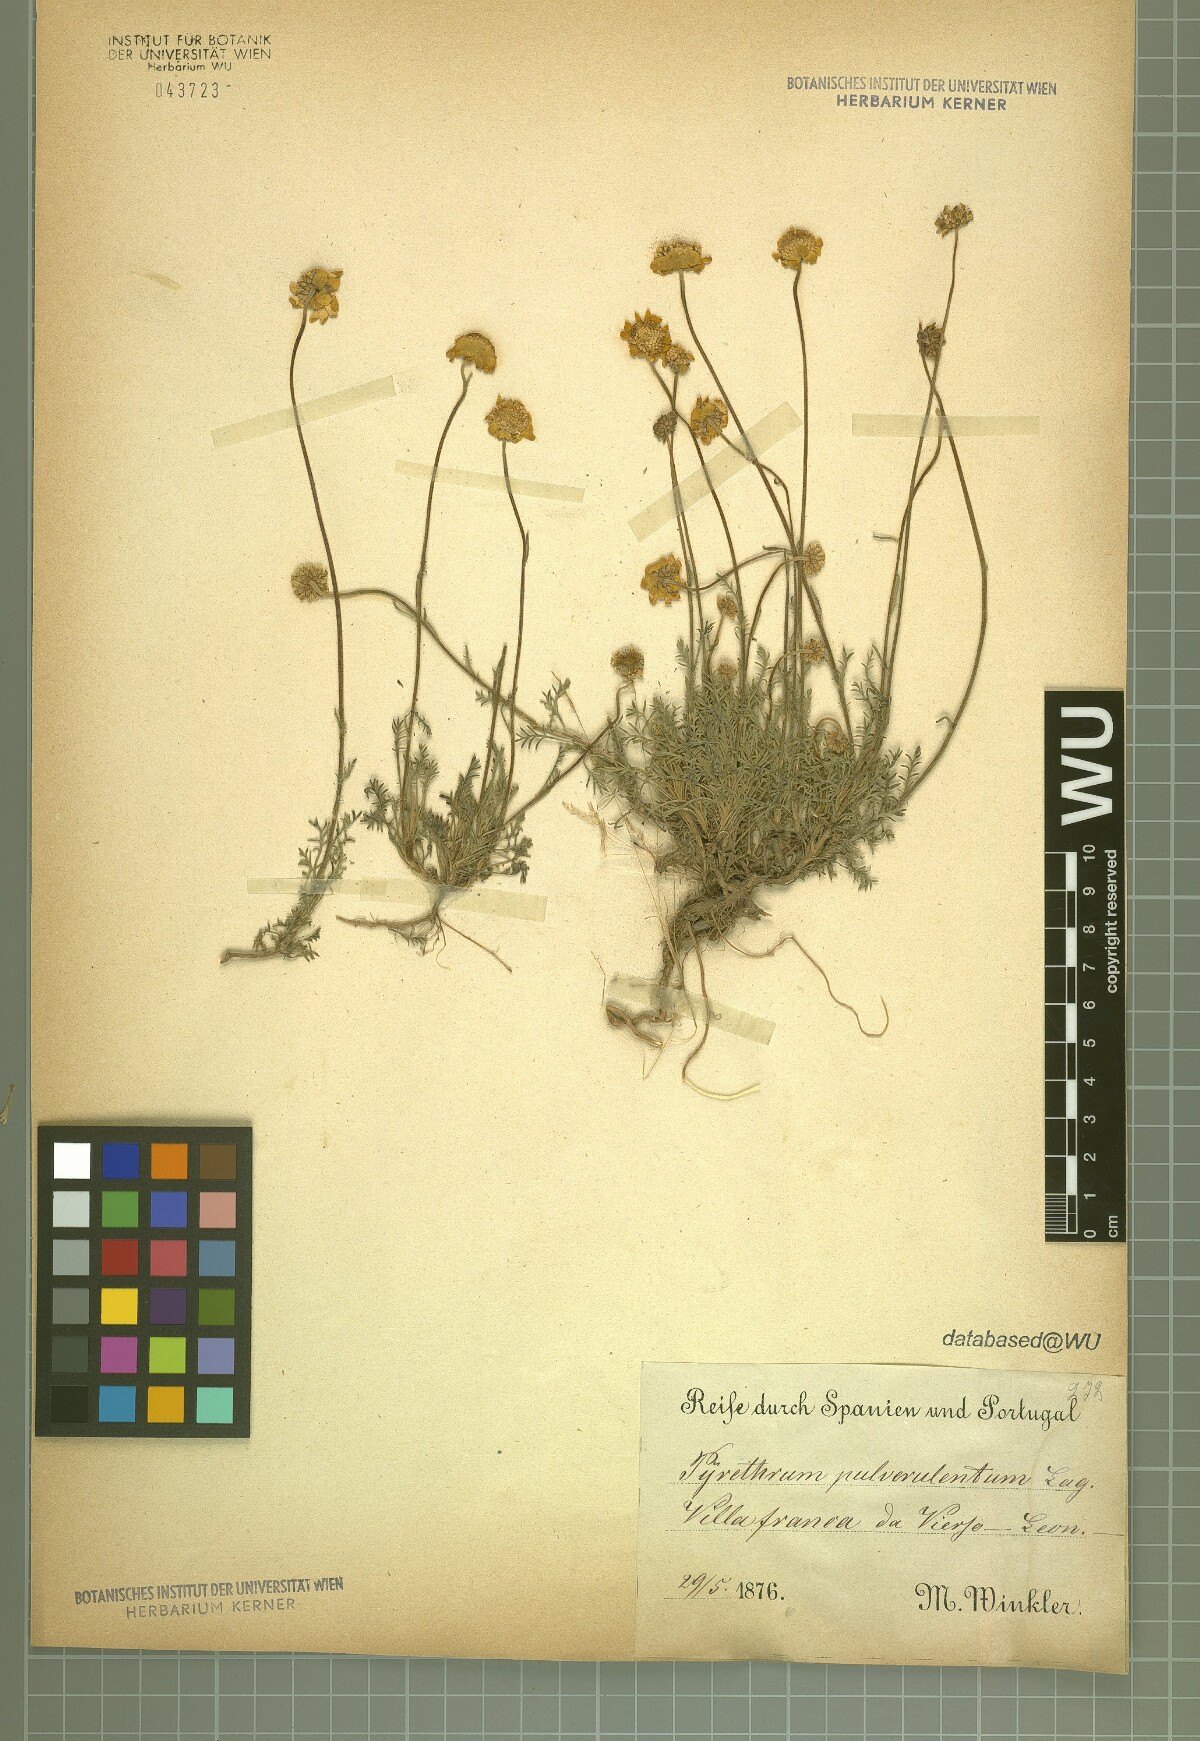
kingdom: Plantae
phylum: Tracheophyta
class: Magnoliopsida
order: Asterales
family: Asteraceae
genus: Leucanthemopsis
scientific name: Leucanthemopsis pulverulenta
